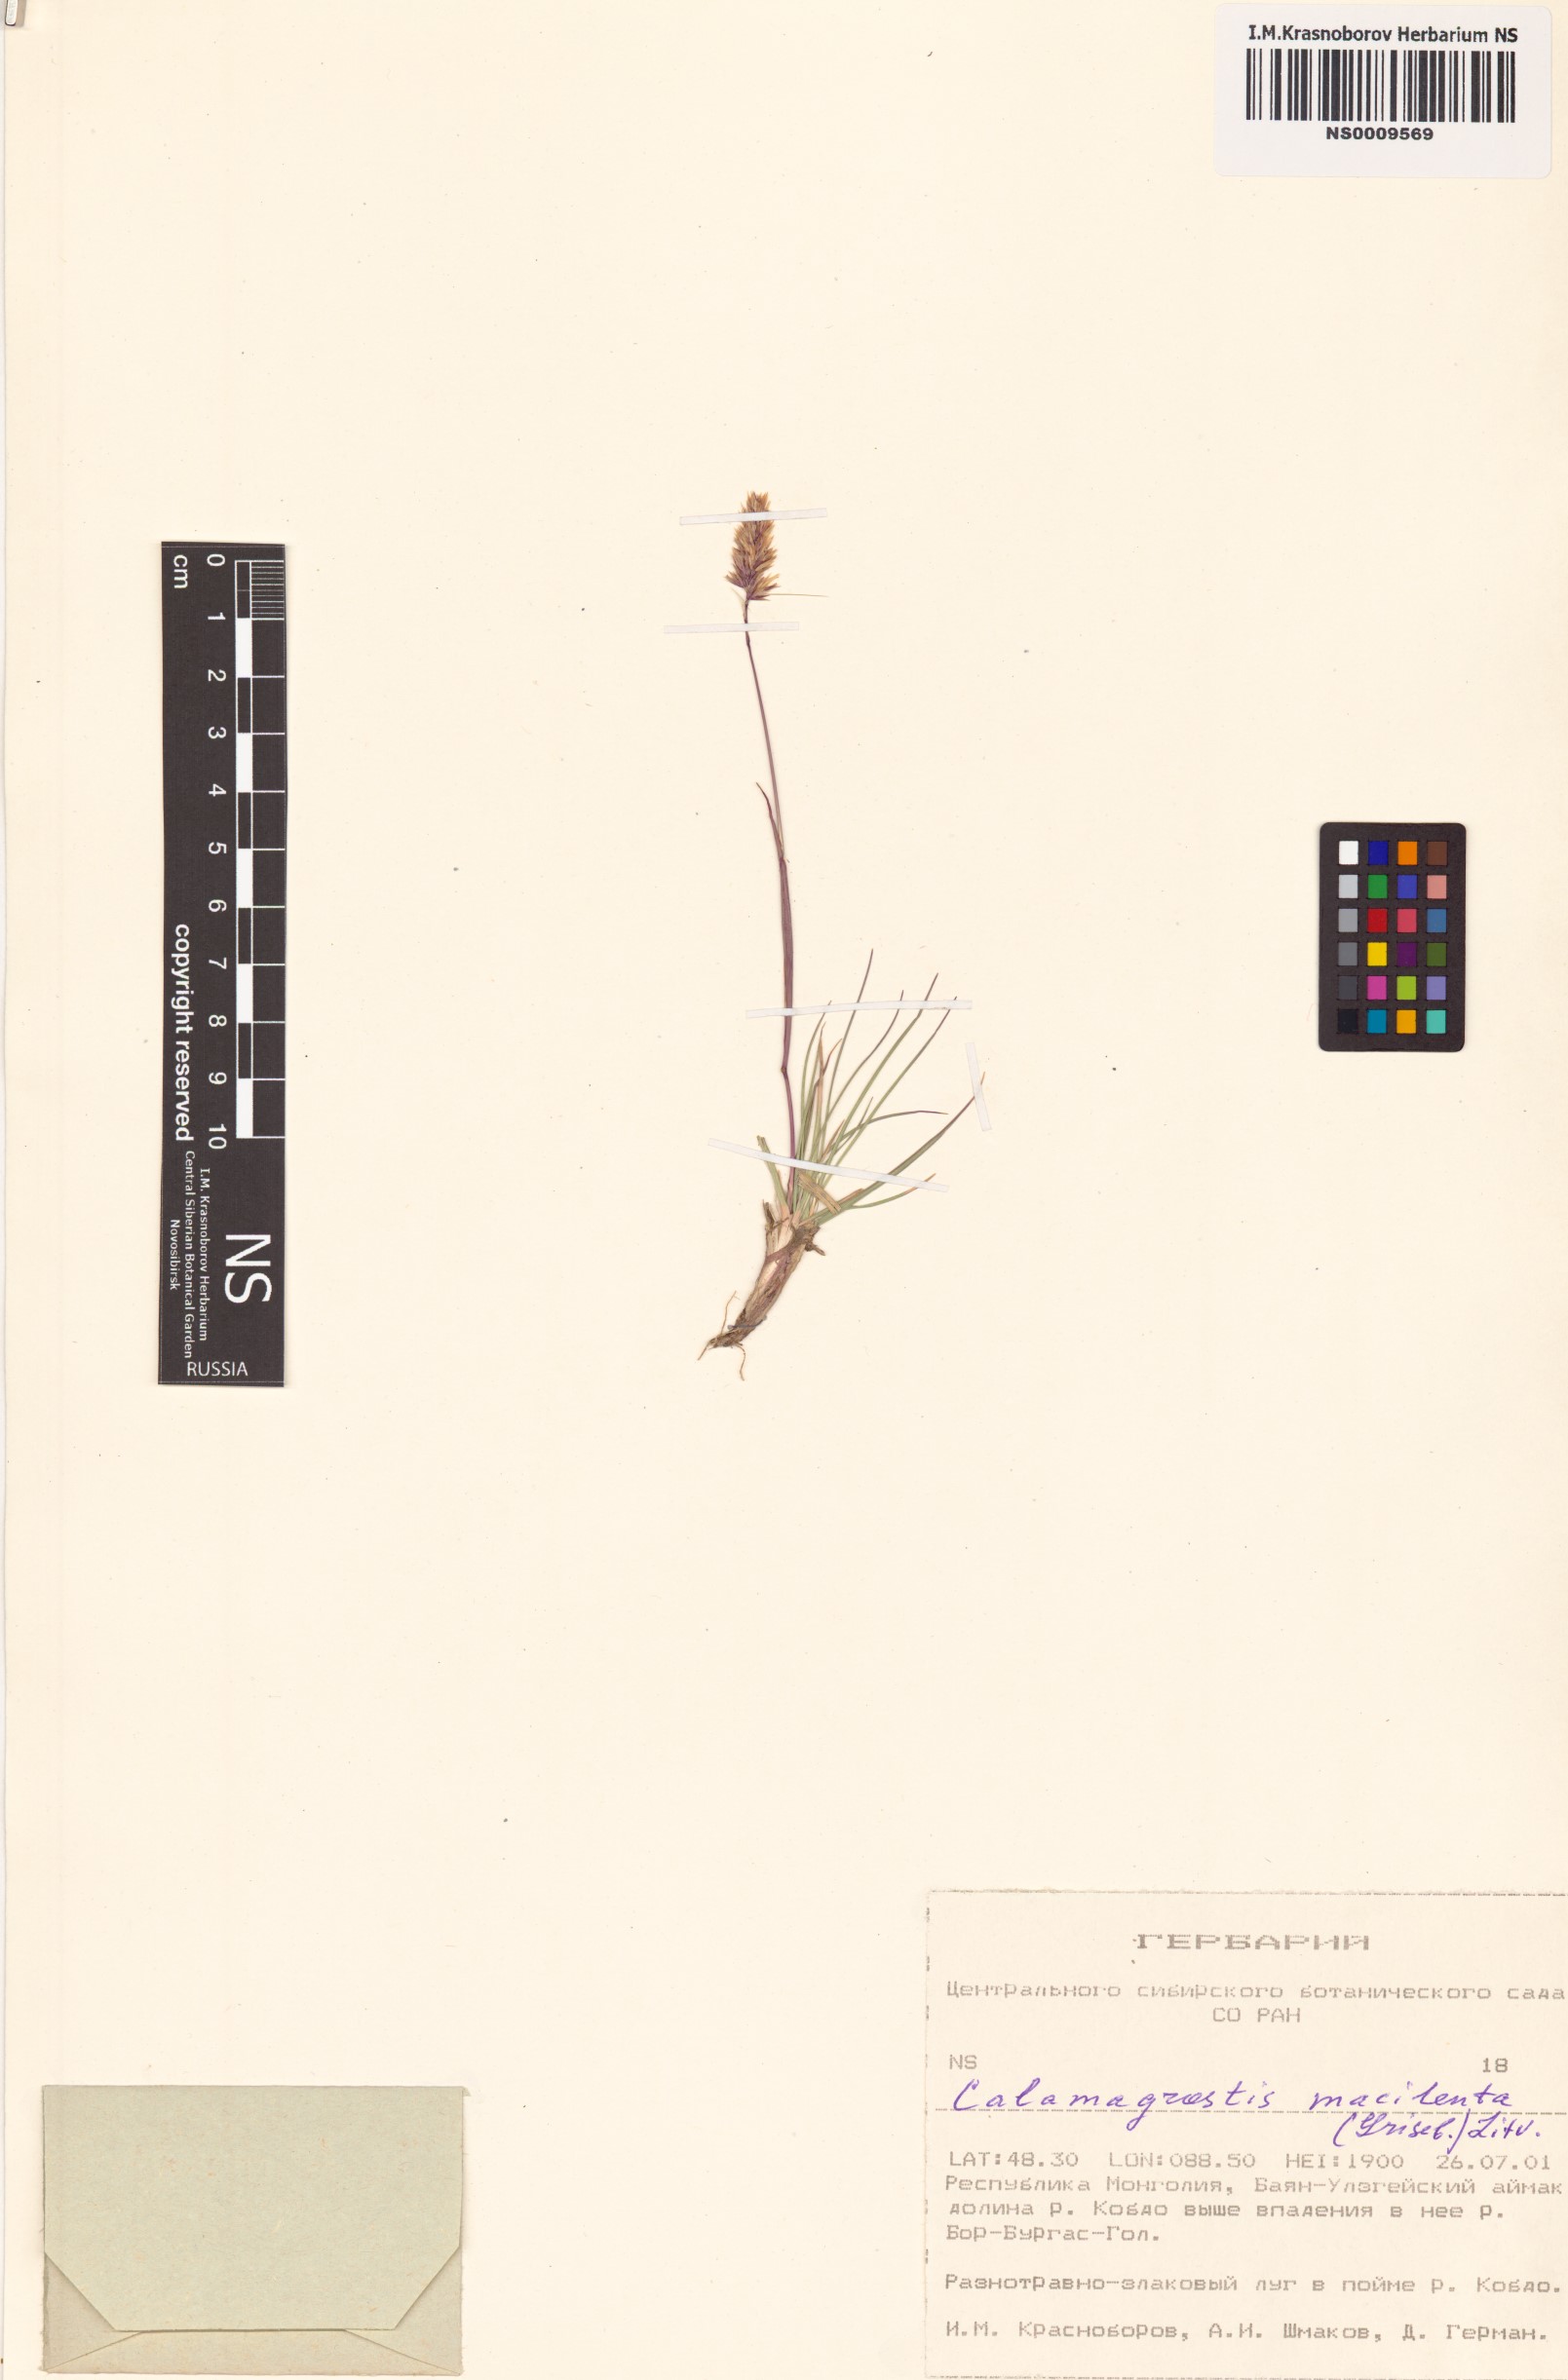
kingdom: Plantae
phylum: Tracheophyta
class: Liliopsida
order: Poales
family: Poaceae
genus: Calamagrostis
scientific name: Calamagrostis macilenta
